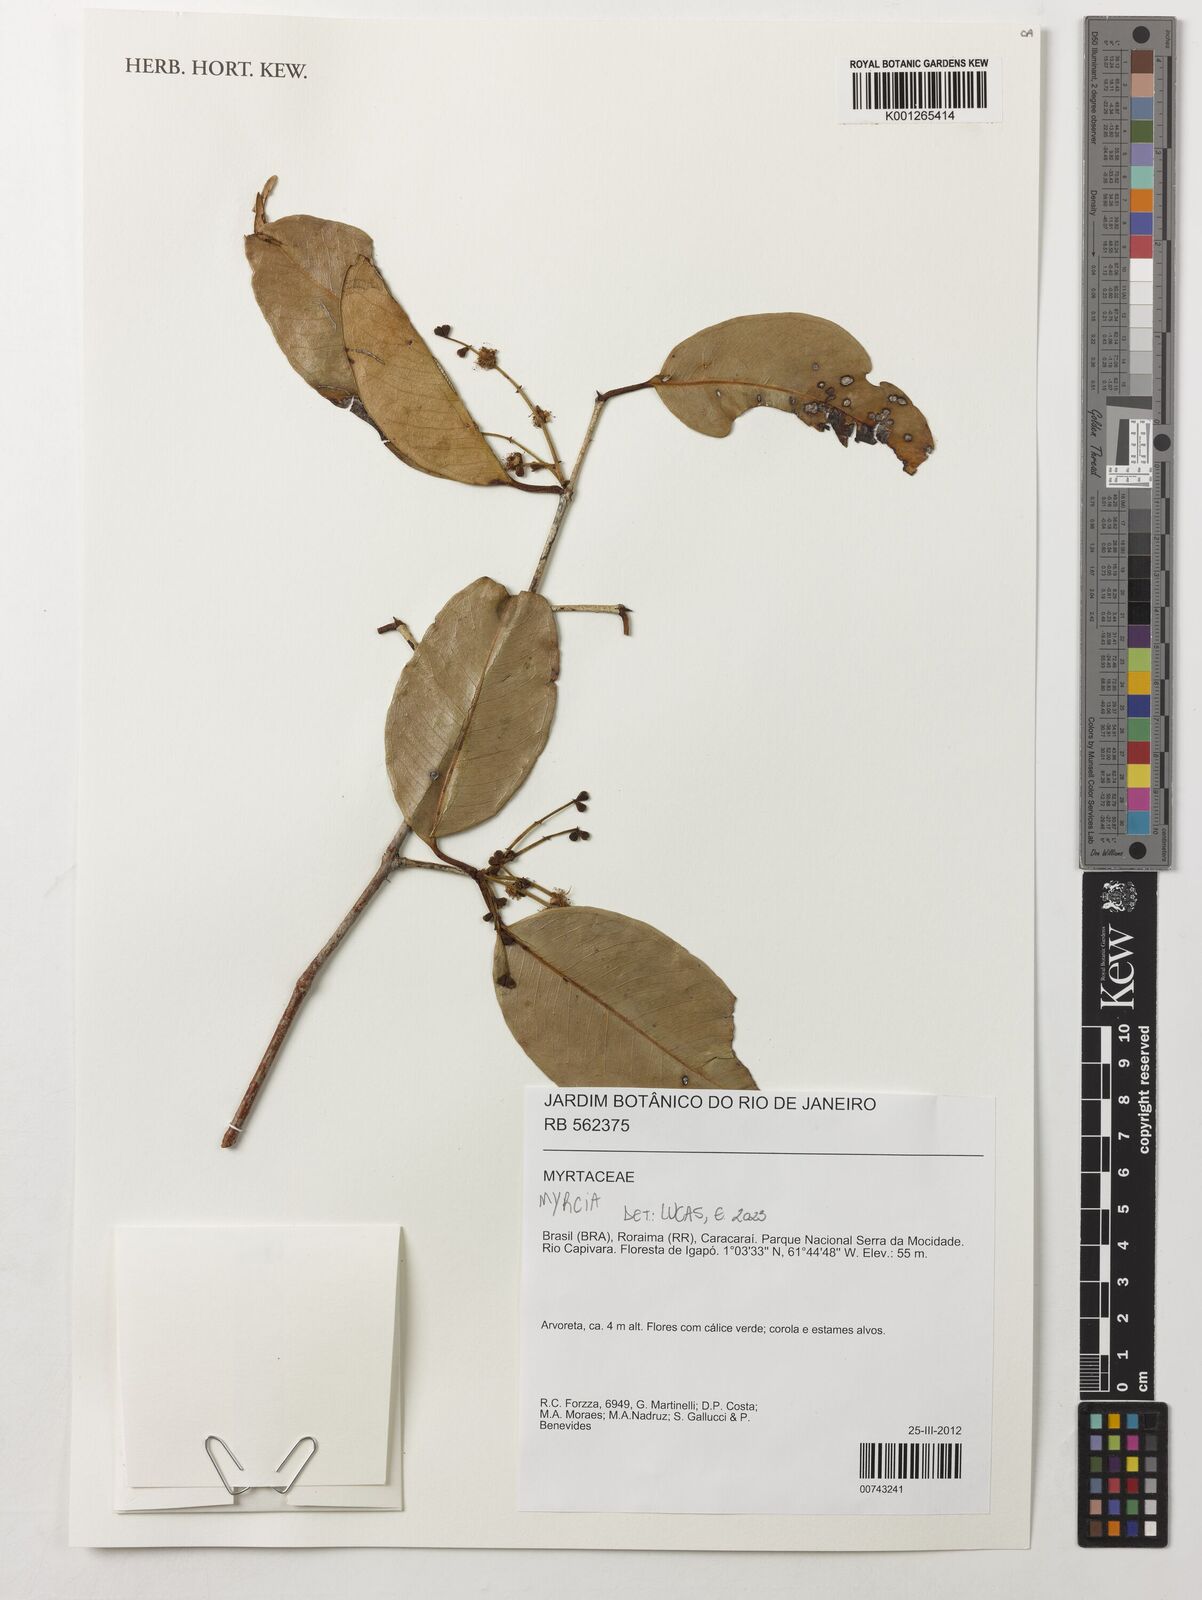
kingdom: Plantae
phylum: Tracheophyta
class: Magnoliopsida
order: Myrtales
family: Myrtaceae
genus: Myrcia
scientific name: Myrcia
